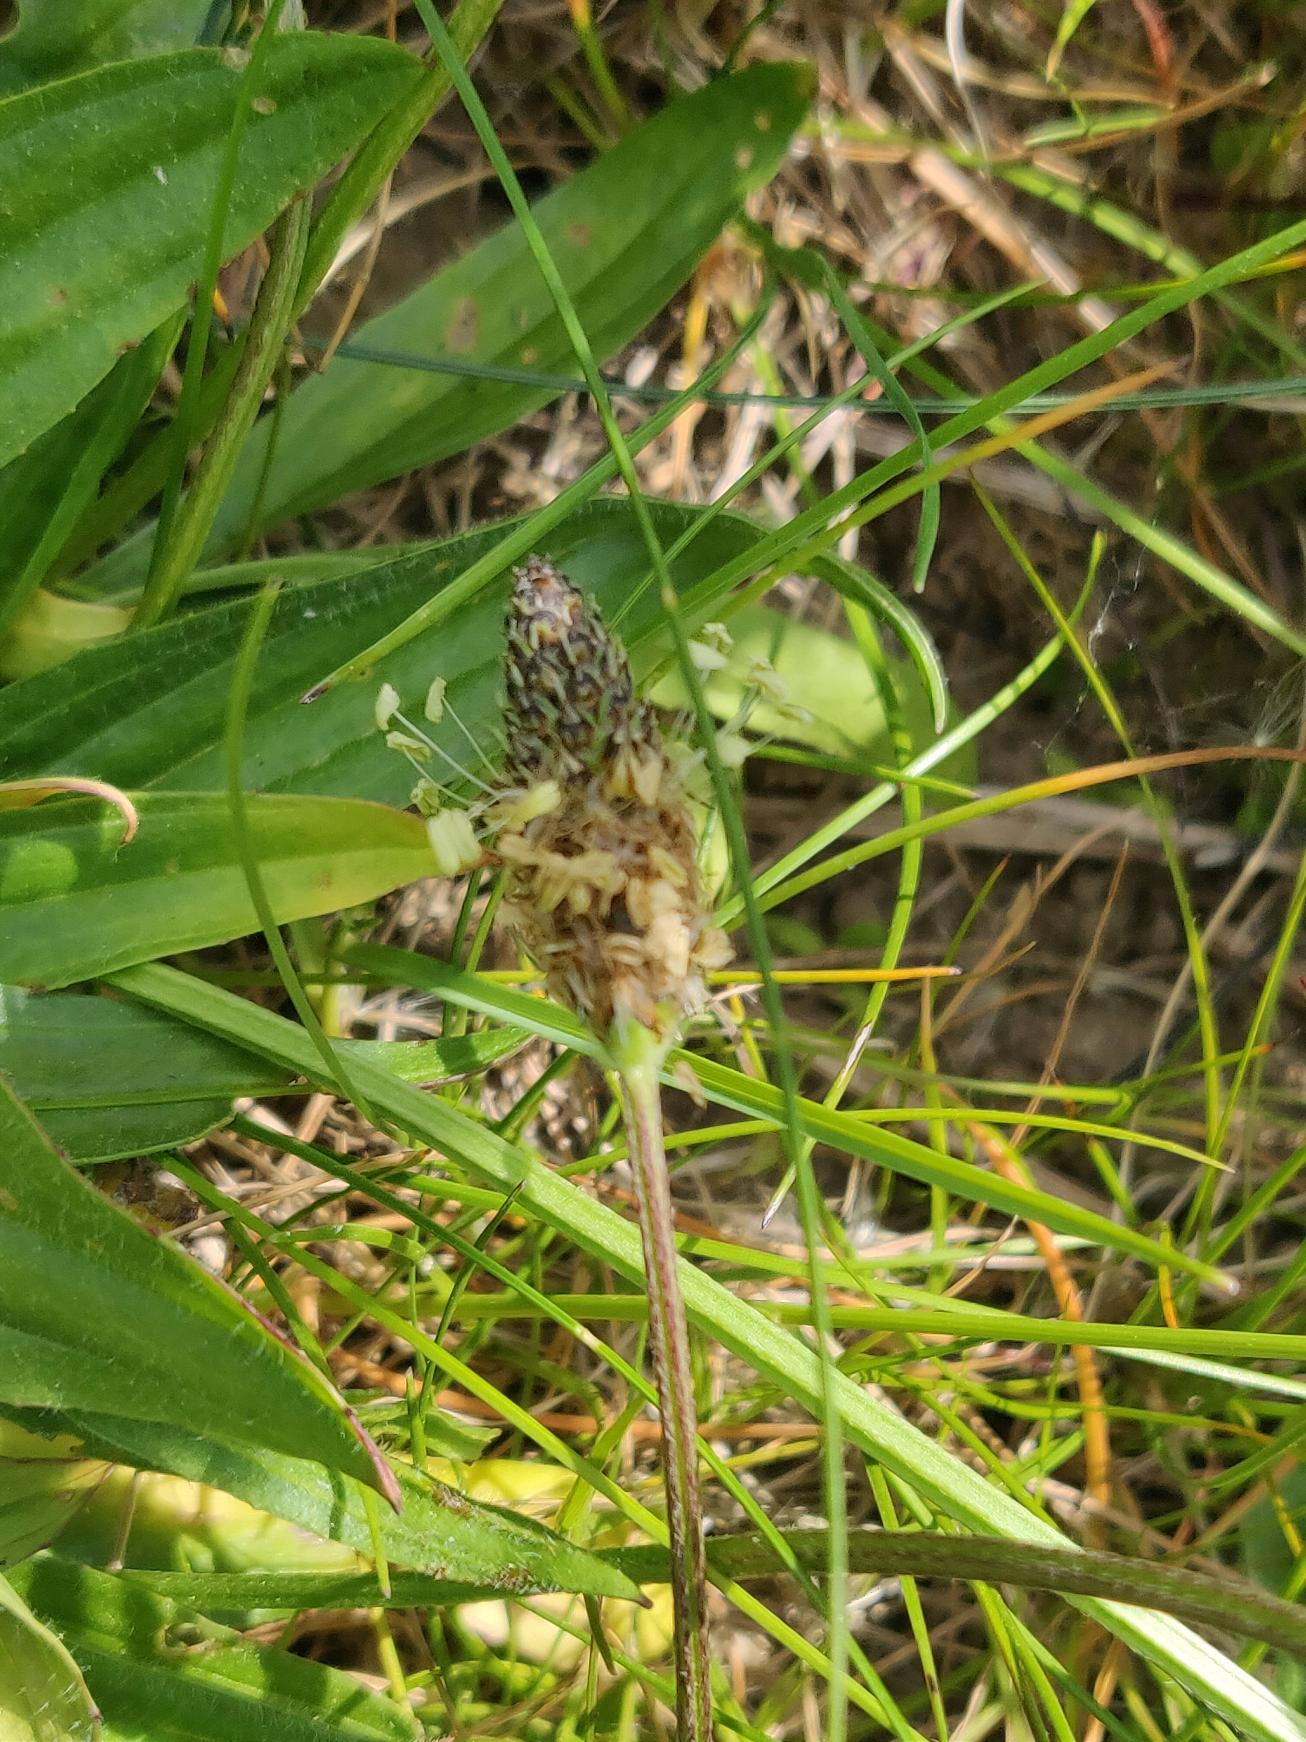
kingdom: Plantae
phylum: Tracheophyta
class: Magnoliopsida
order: Lamiales
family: Plantaginaceae
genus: Plantago
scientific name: Plantago lanceolata
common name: Lancet-vejbred
